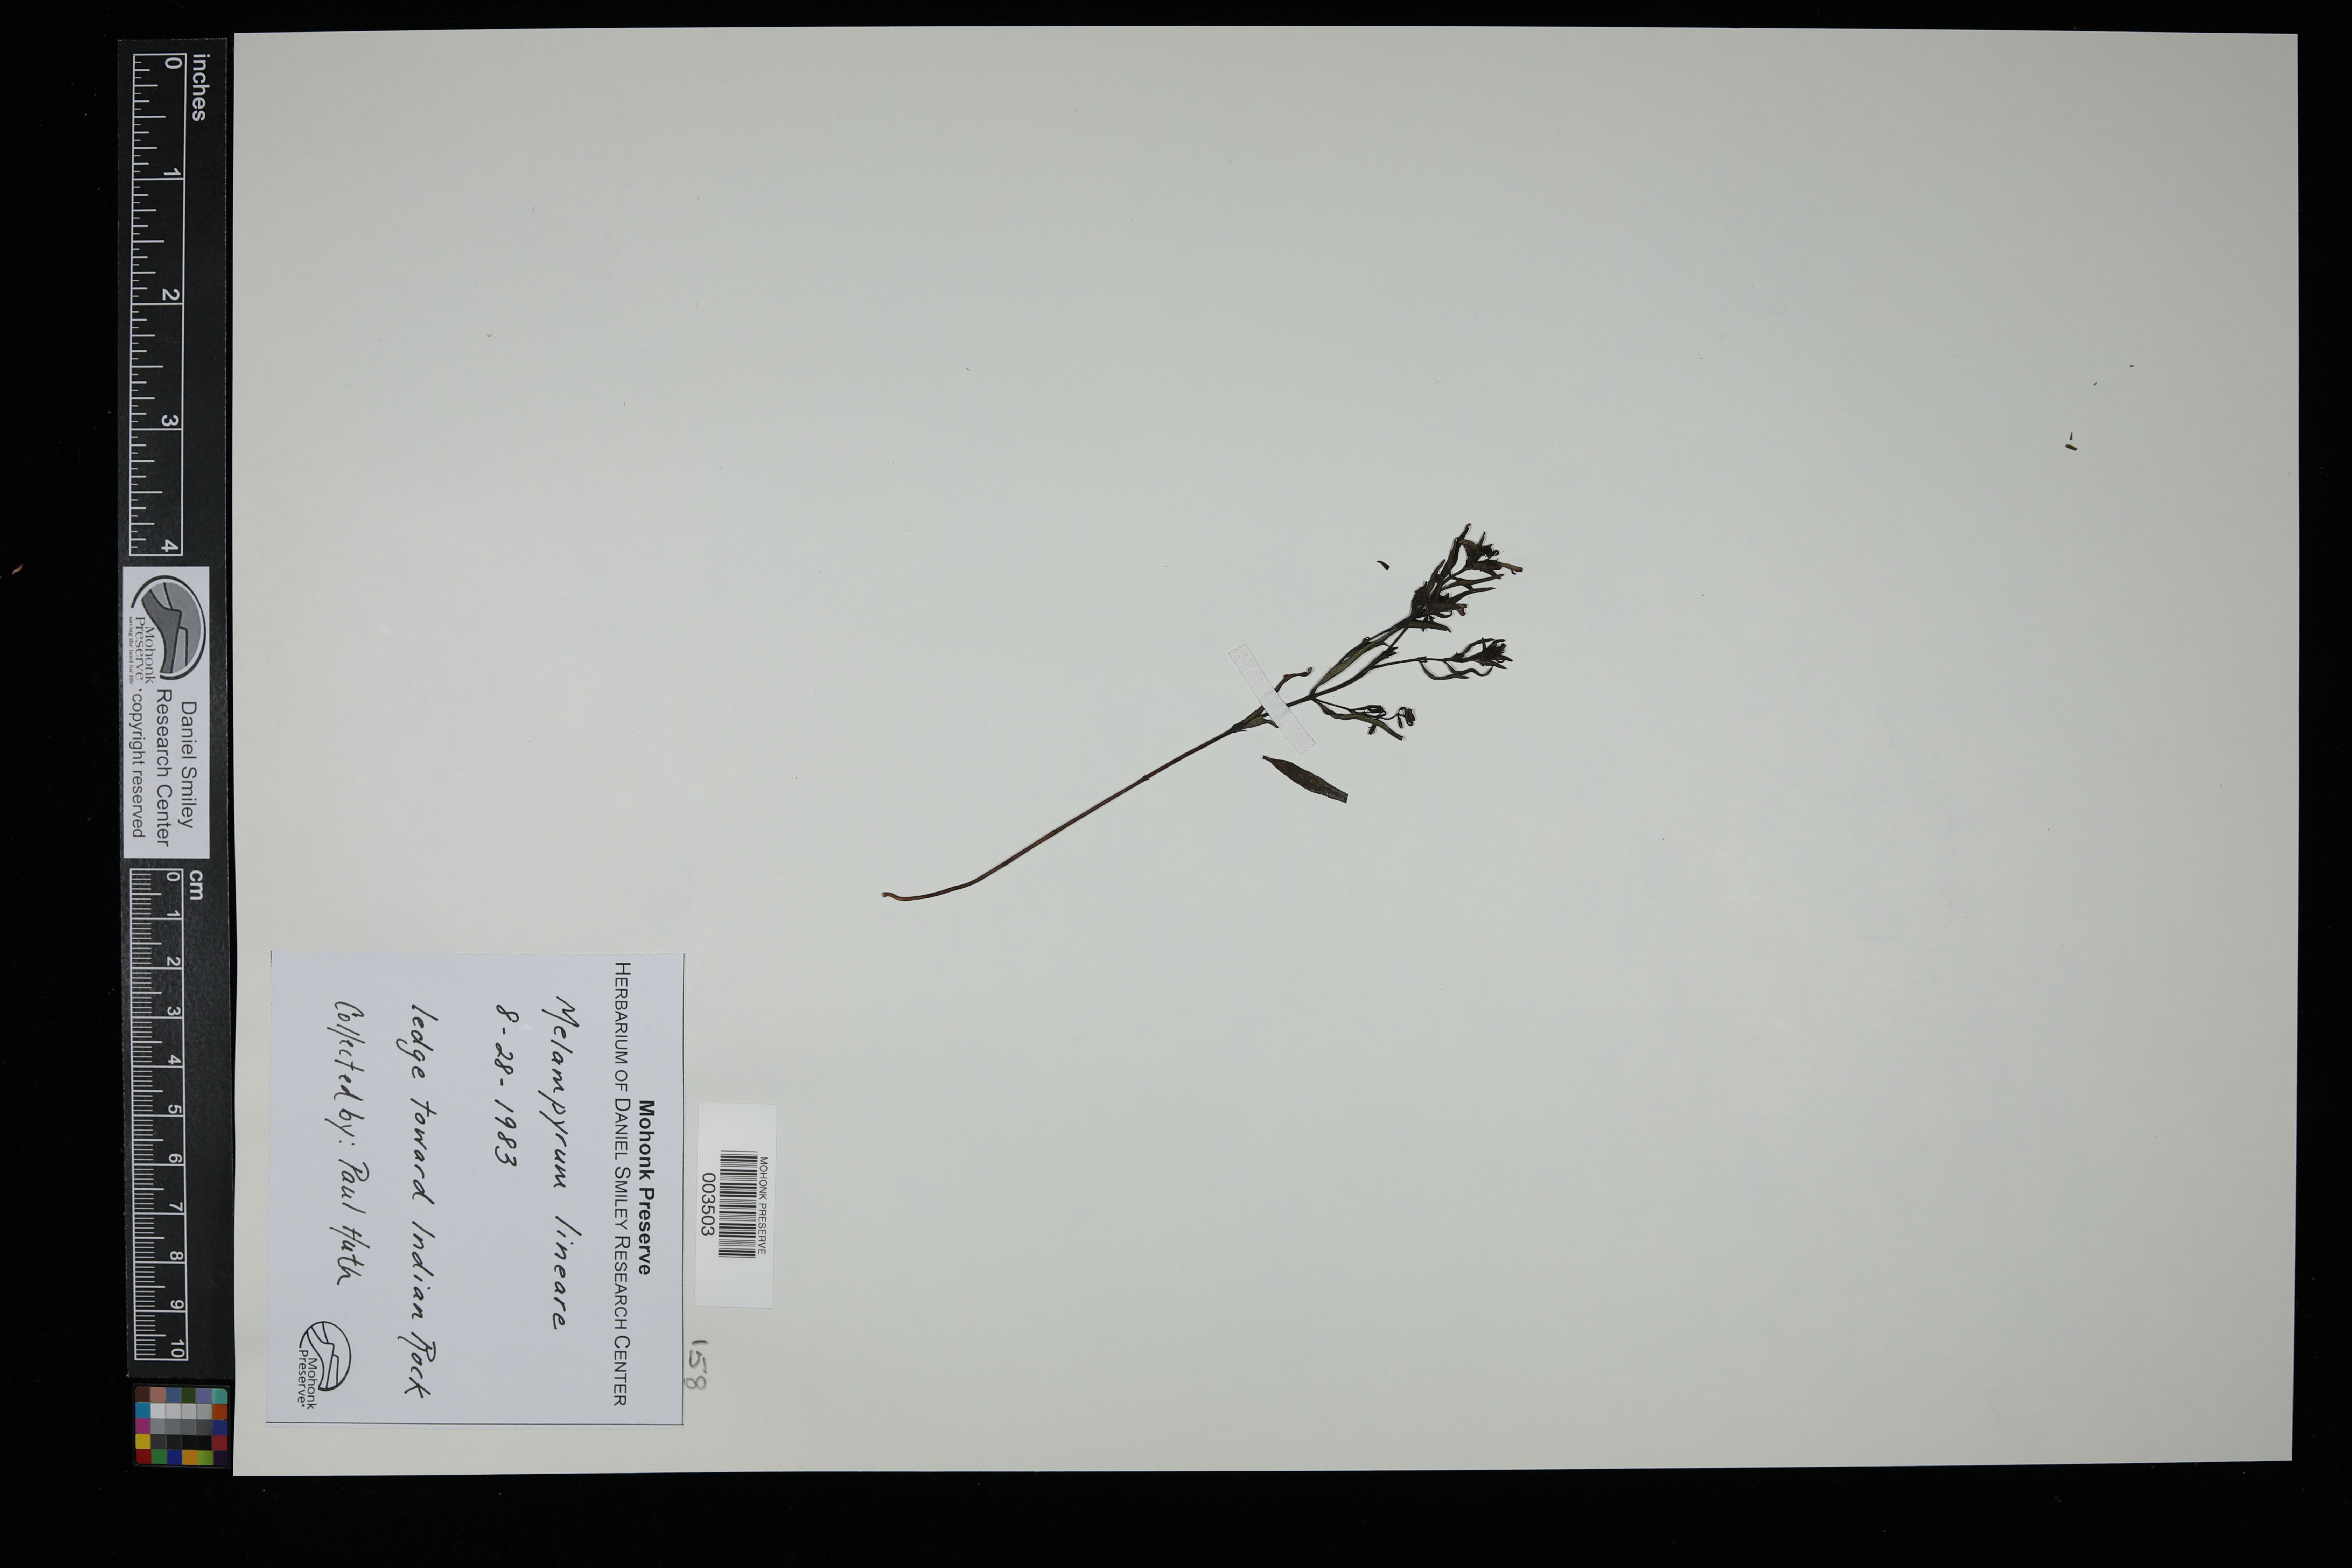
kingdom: Plantae
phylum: Tracheophyta
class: Magnoliopsida
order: Lamiales
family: Orobanchaceae
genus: Melampyrum
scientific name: Melampyrum lineare
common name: American cow-wheat
